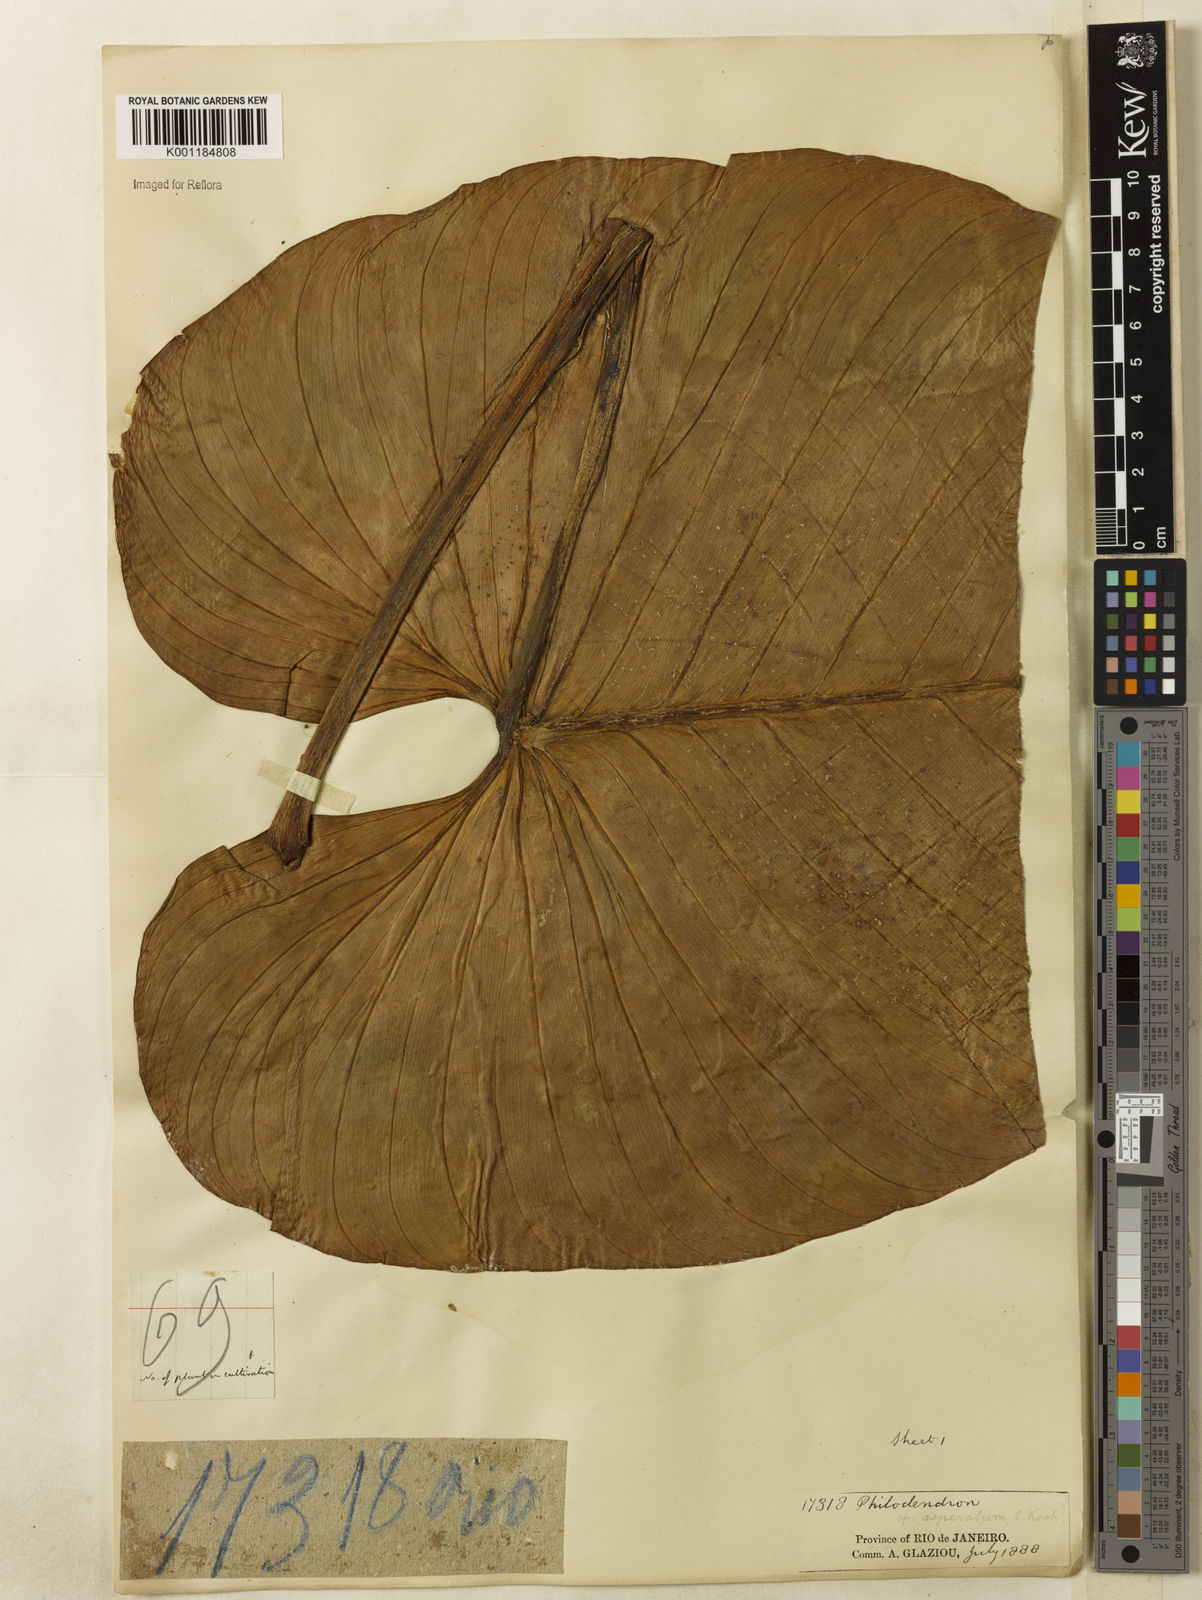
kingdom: Plantae
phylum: Tracheophyta
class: Liliopsida
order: Alismatales
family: Araceae
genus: Philodendron
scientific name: Philodendron ornatum
